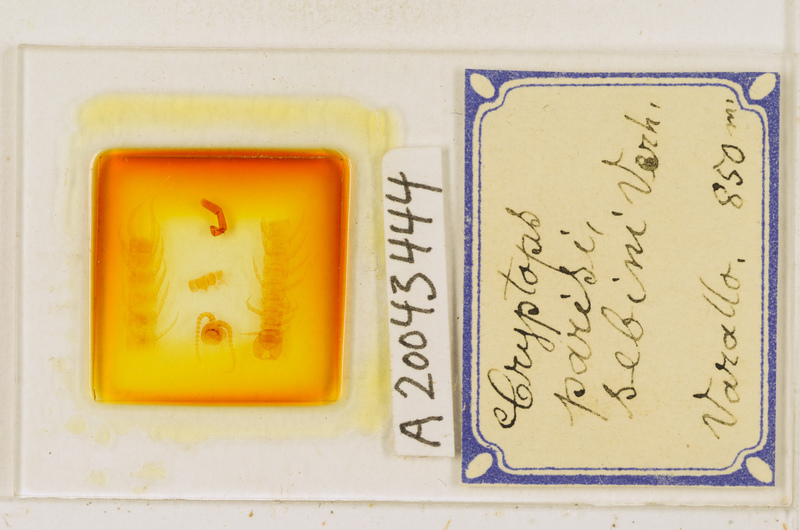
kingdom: Animalia
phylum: Arthropoda
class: Chilopoda
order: Scolopendromorpha
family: Cryptopidae
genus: Cryptops
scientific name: Cryptops parisi
